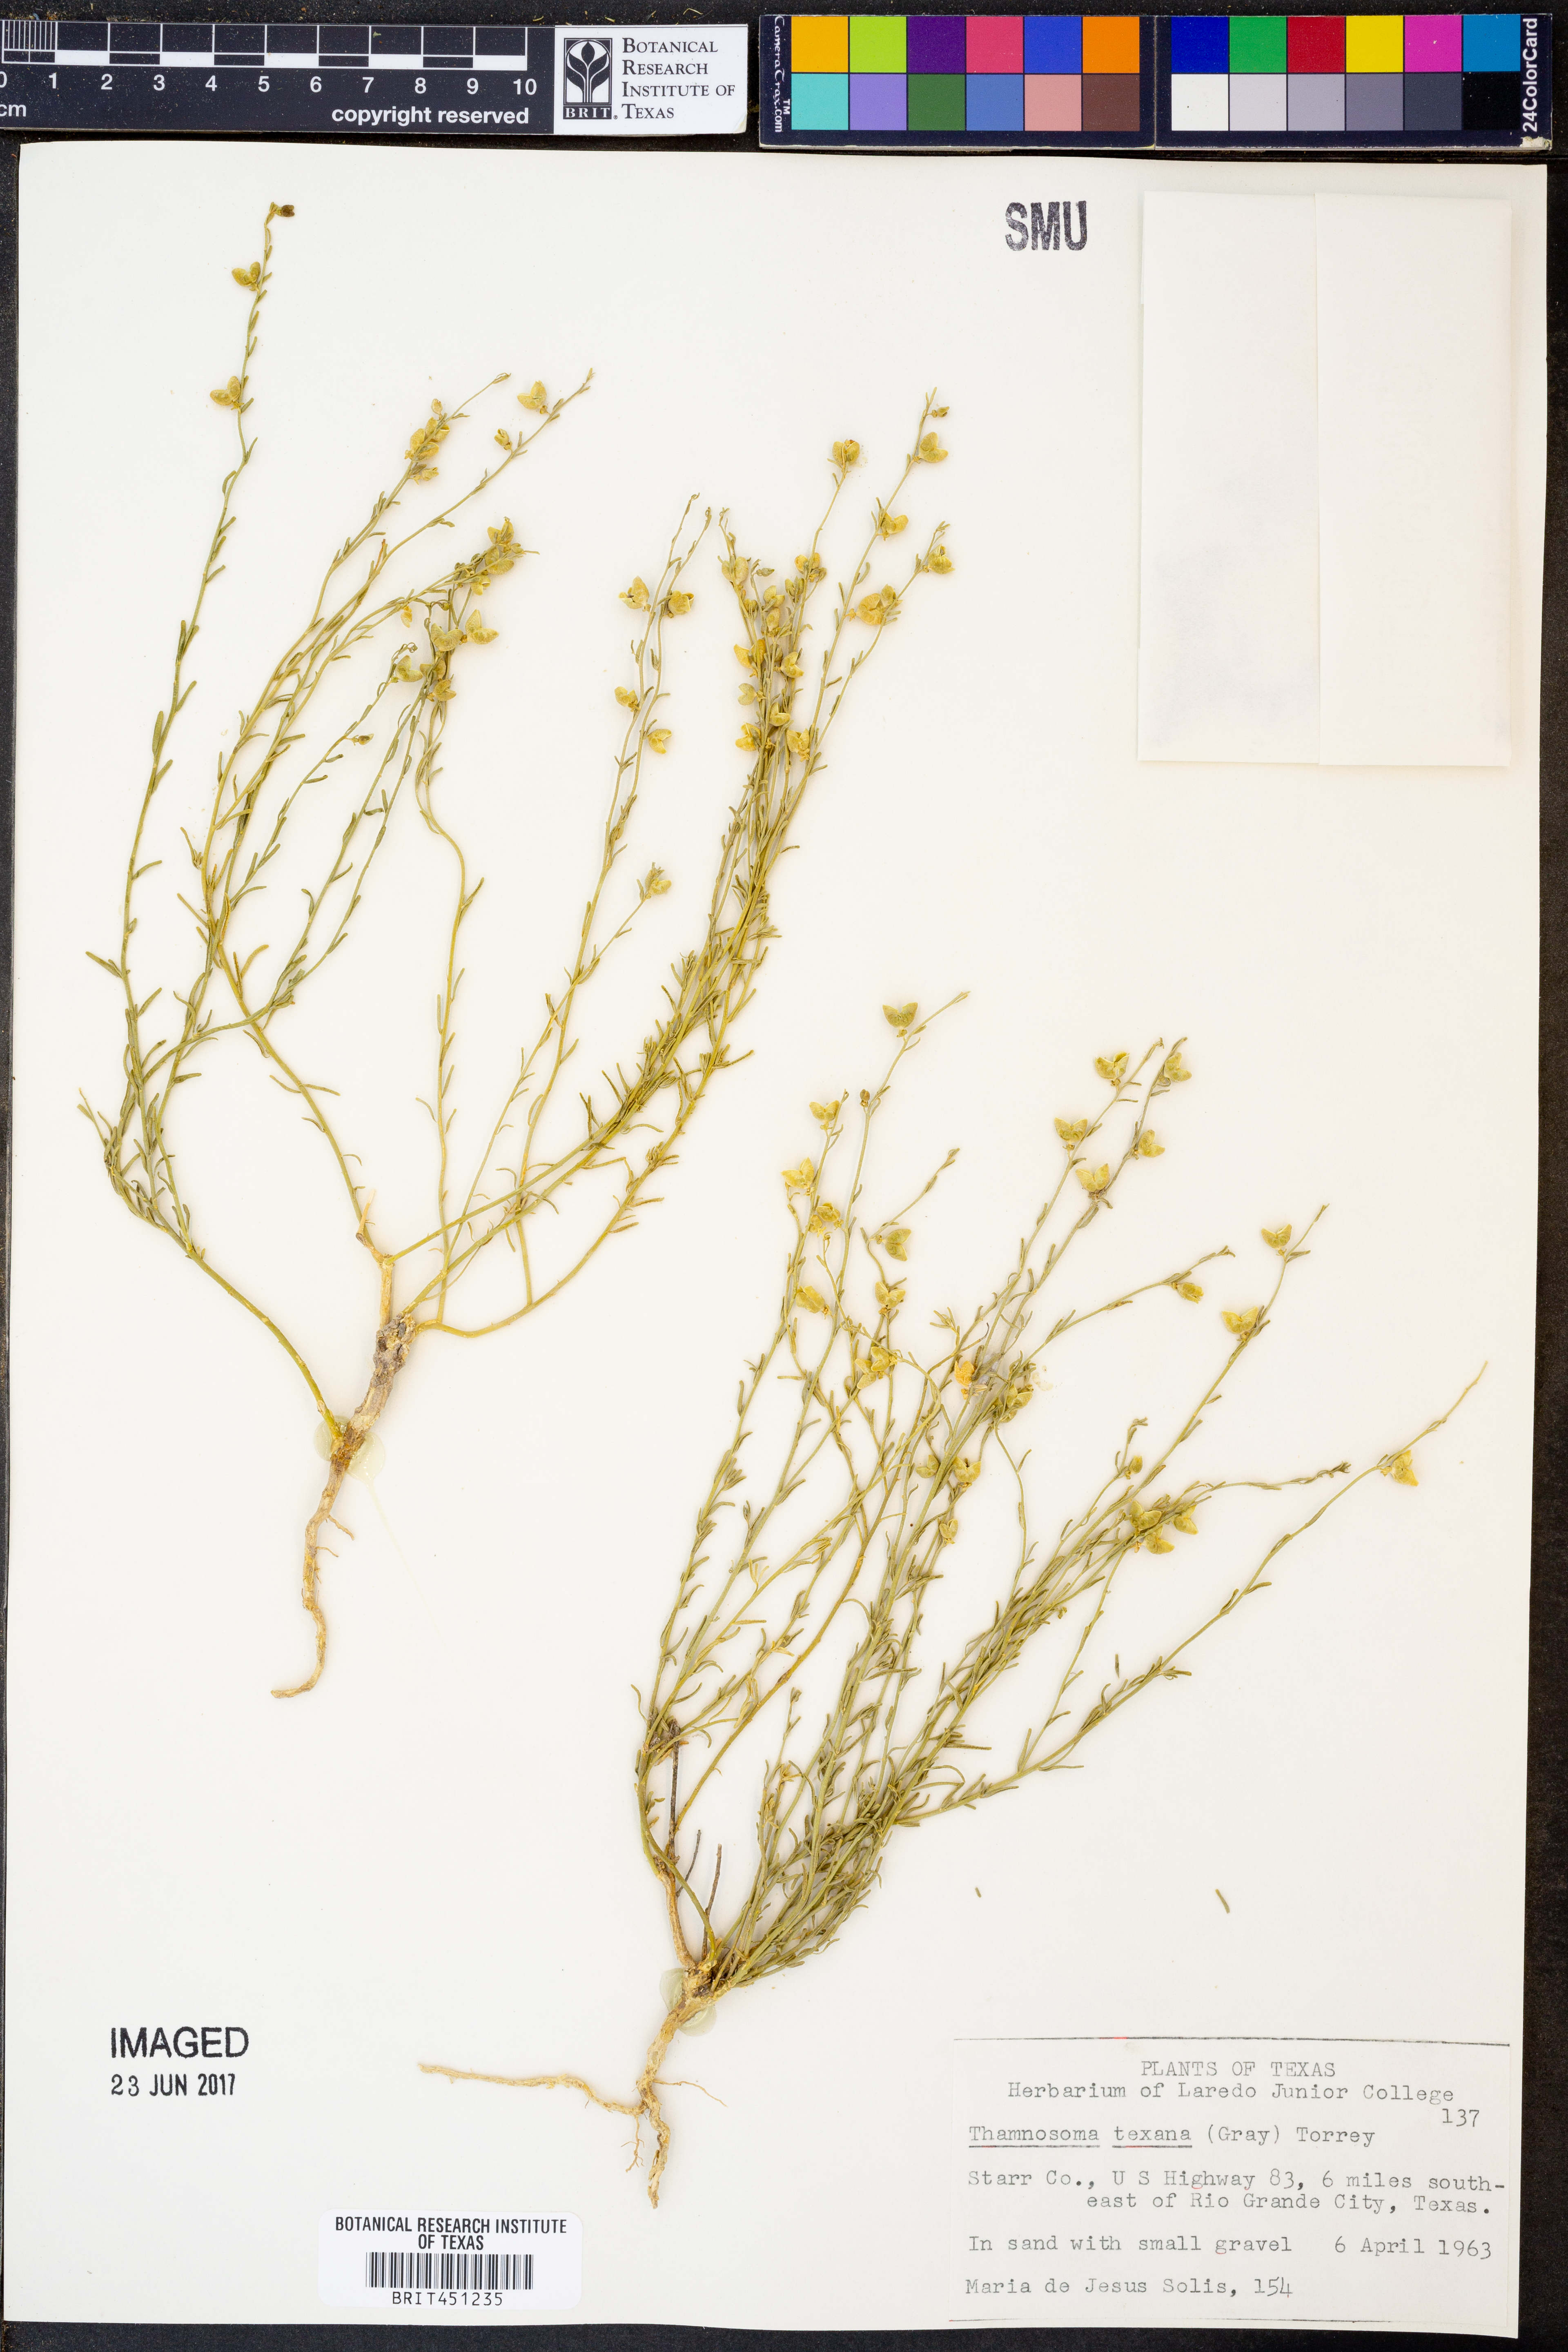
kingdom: Plantae
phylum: Tracheophyta
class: Magnoliopsida
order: Sapindales
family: Rutaceae
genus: Thamnosma
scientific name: Thamnosma texana
